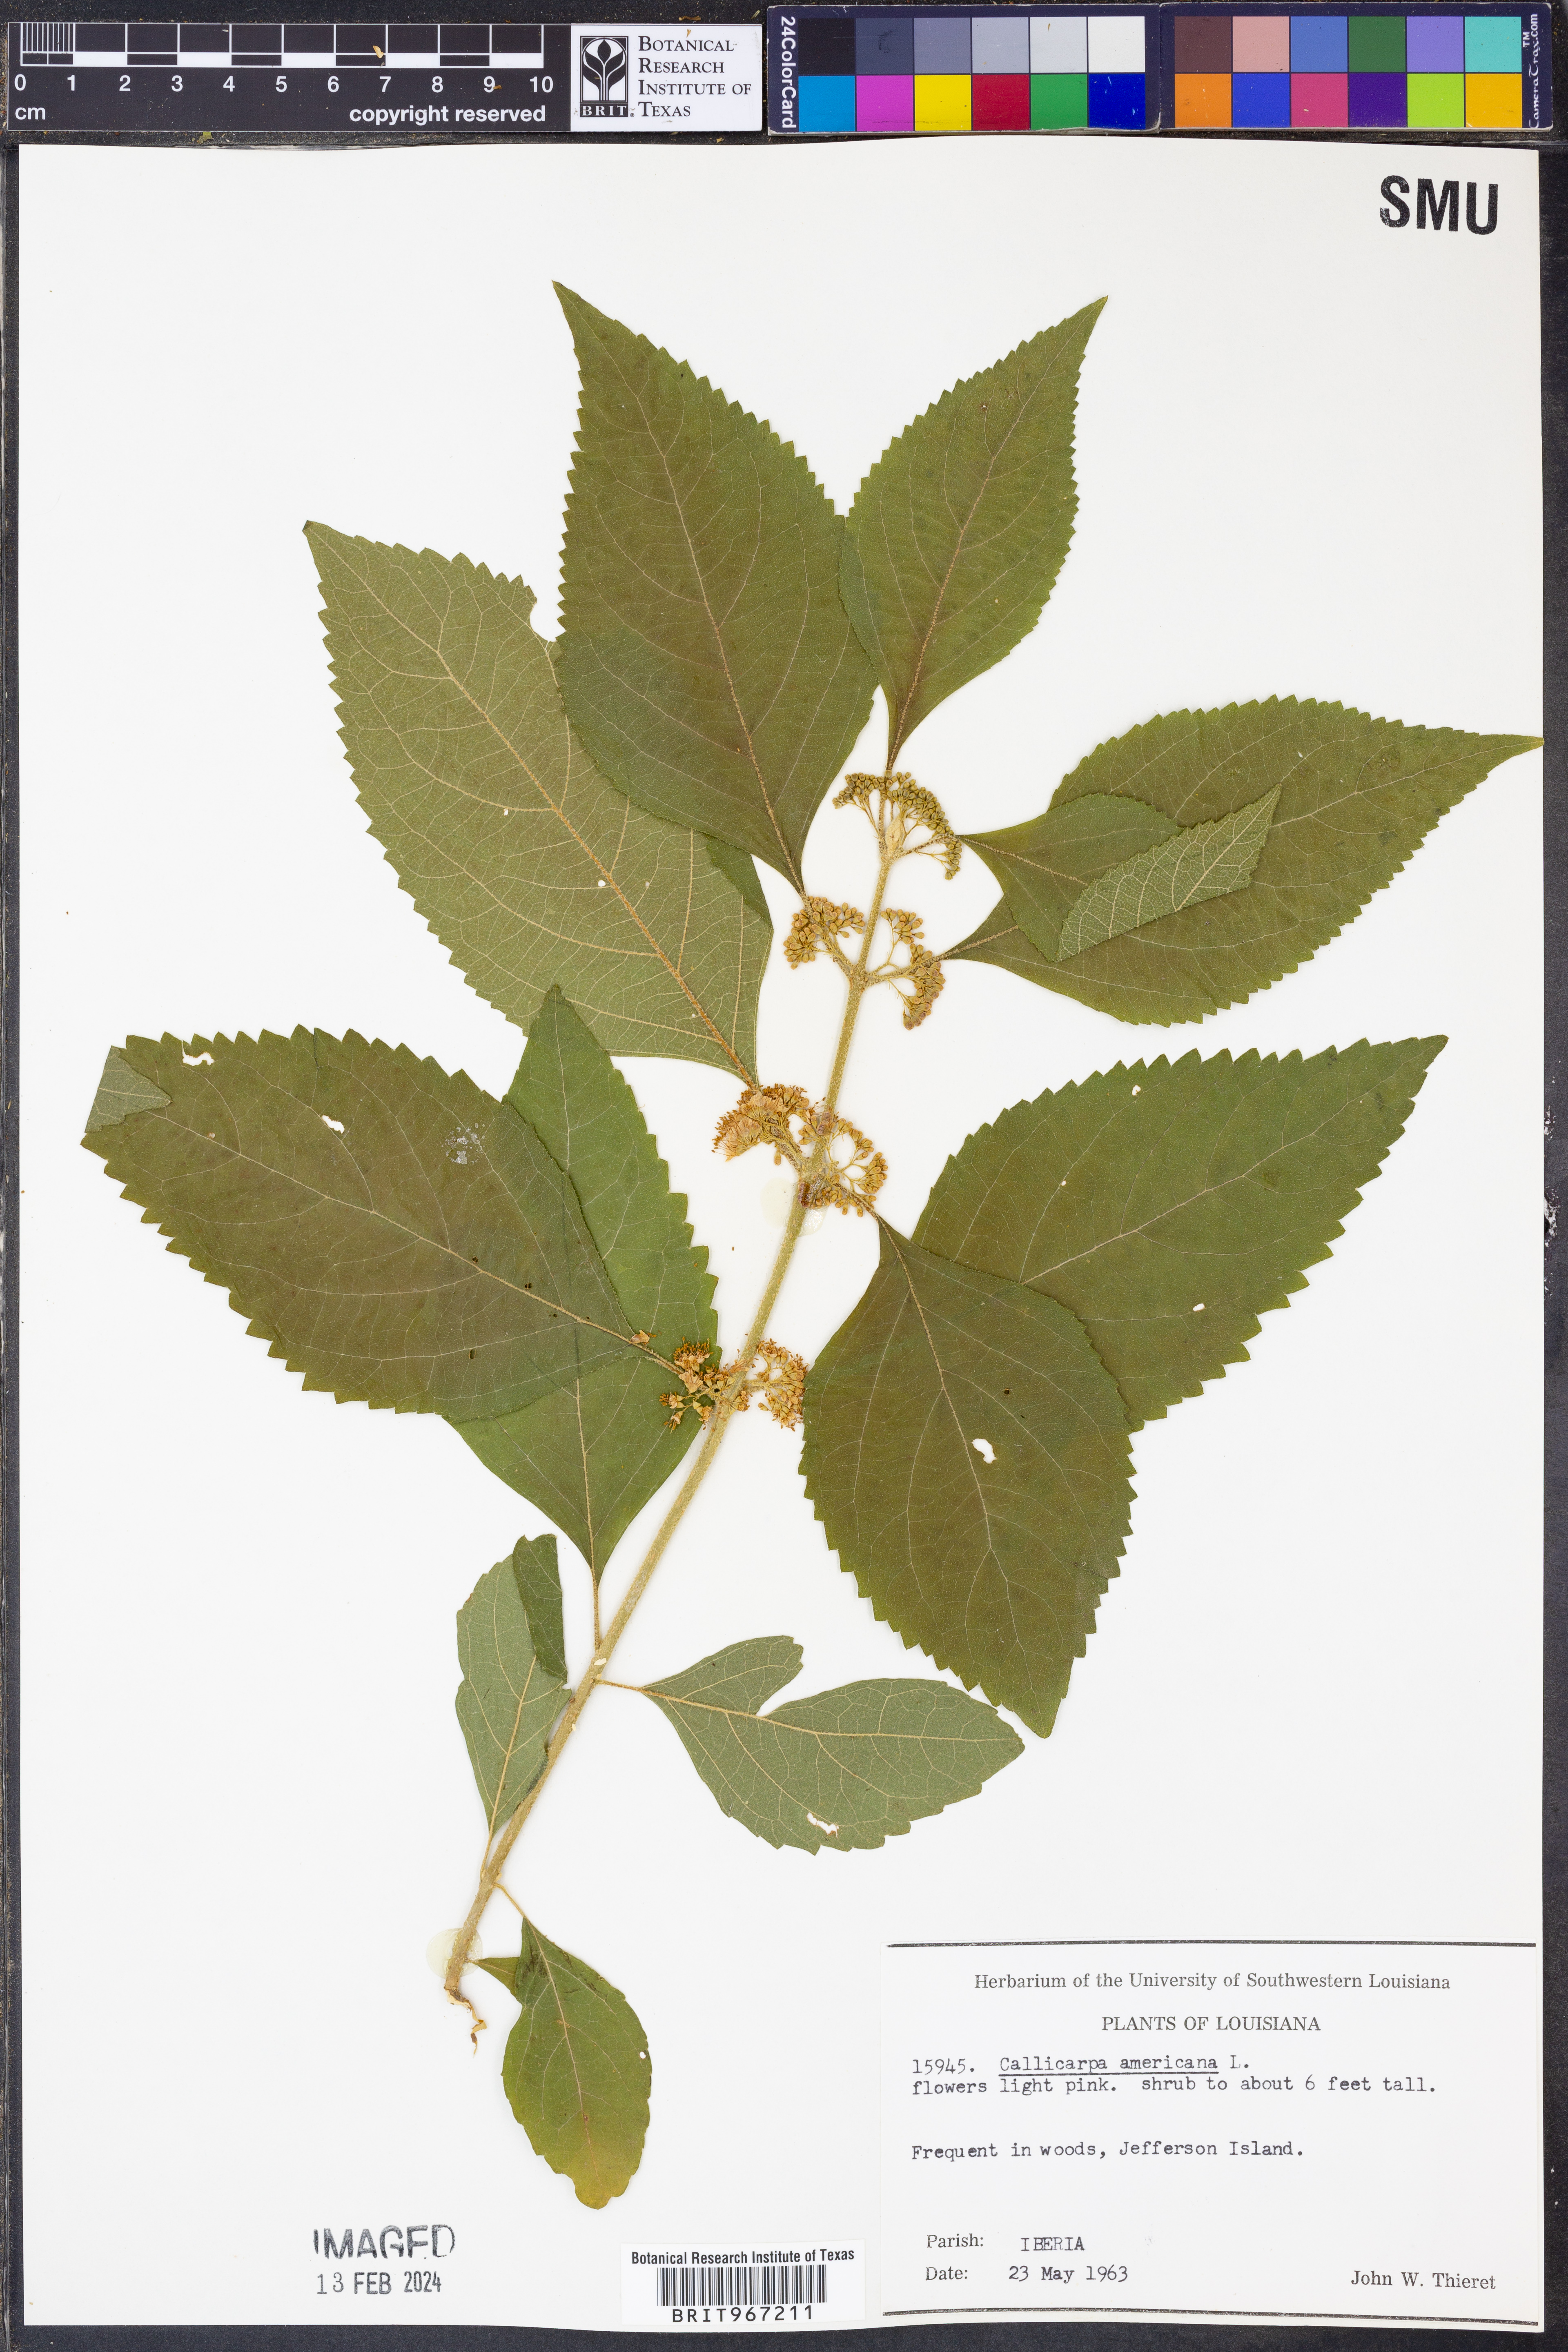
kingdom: Plantae
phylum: Tracheophyta
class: Magnoliopsida
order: Lamiales
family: Lamiaceae
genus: Callicarpa
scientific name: Callicarpa americana
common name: American beautyberry
